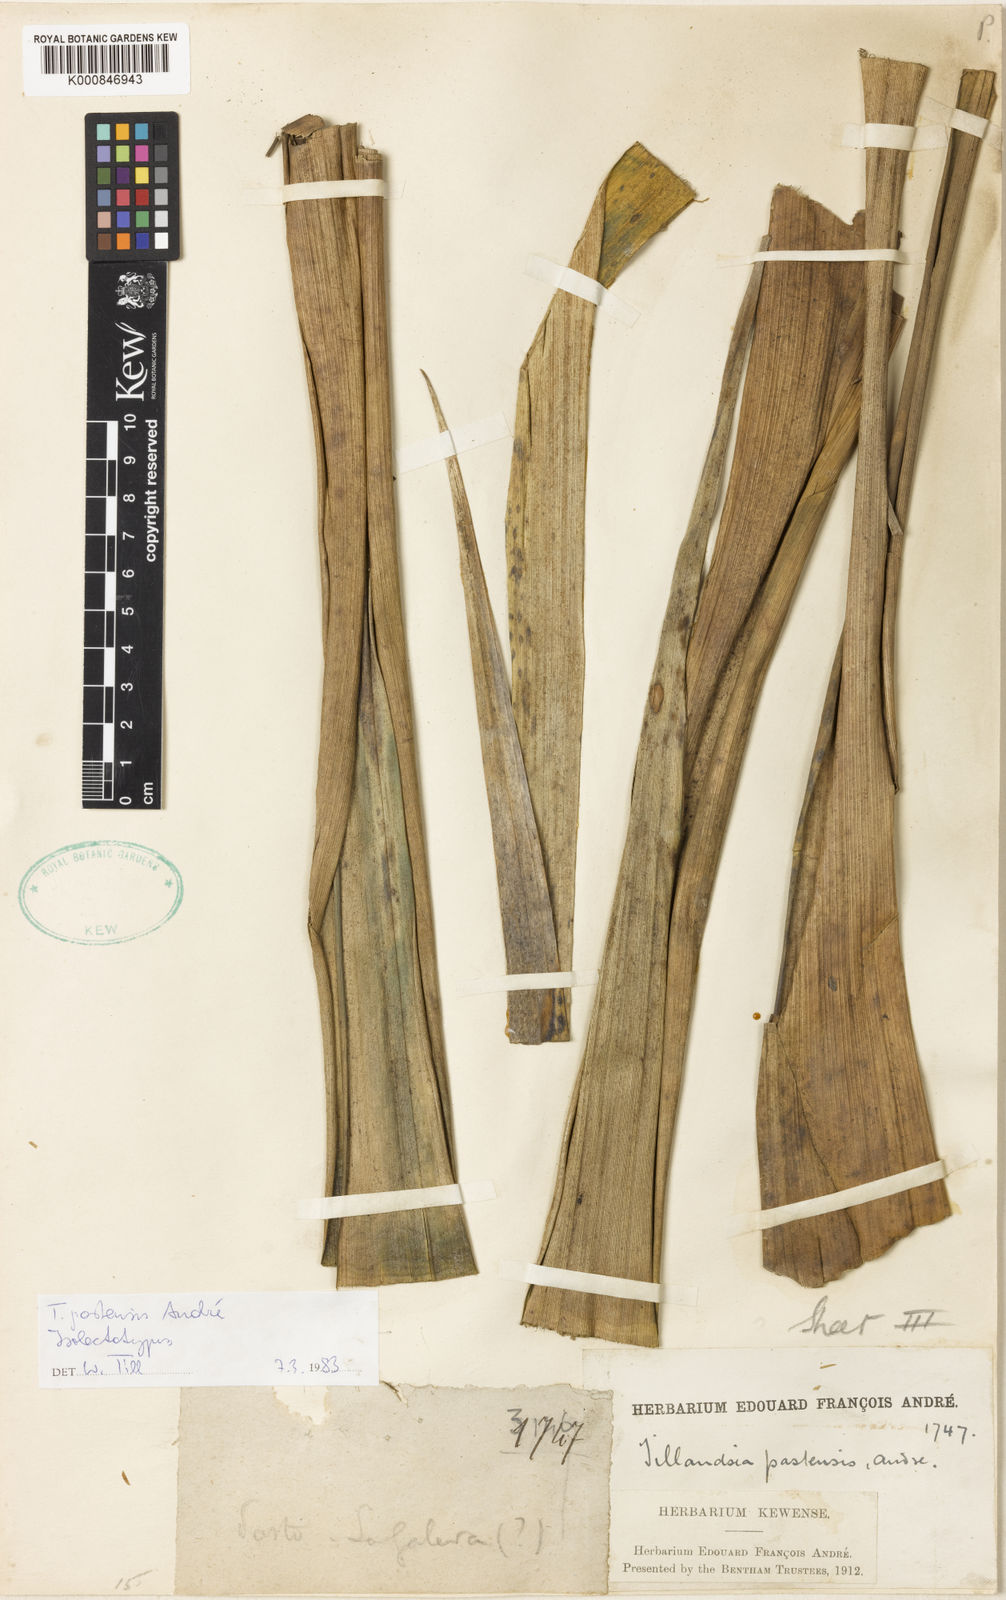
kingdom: Plantae
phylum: Tracheophyta
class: Liliopsida
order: Poales
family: Bromeliaceae
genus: Tillandsia
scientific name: Tillandsia
